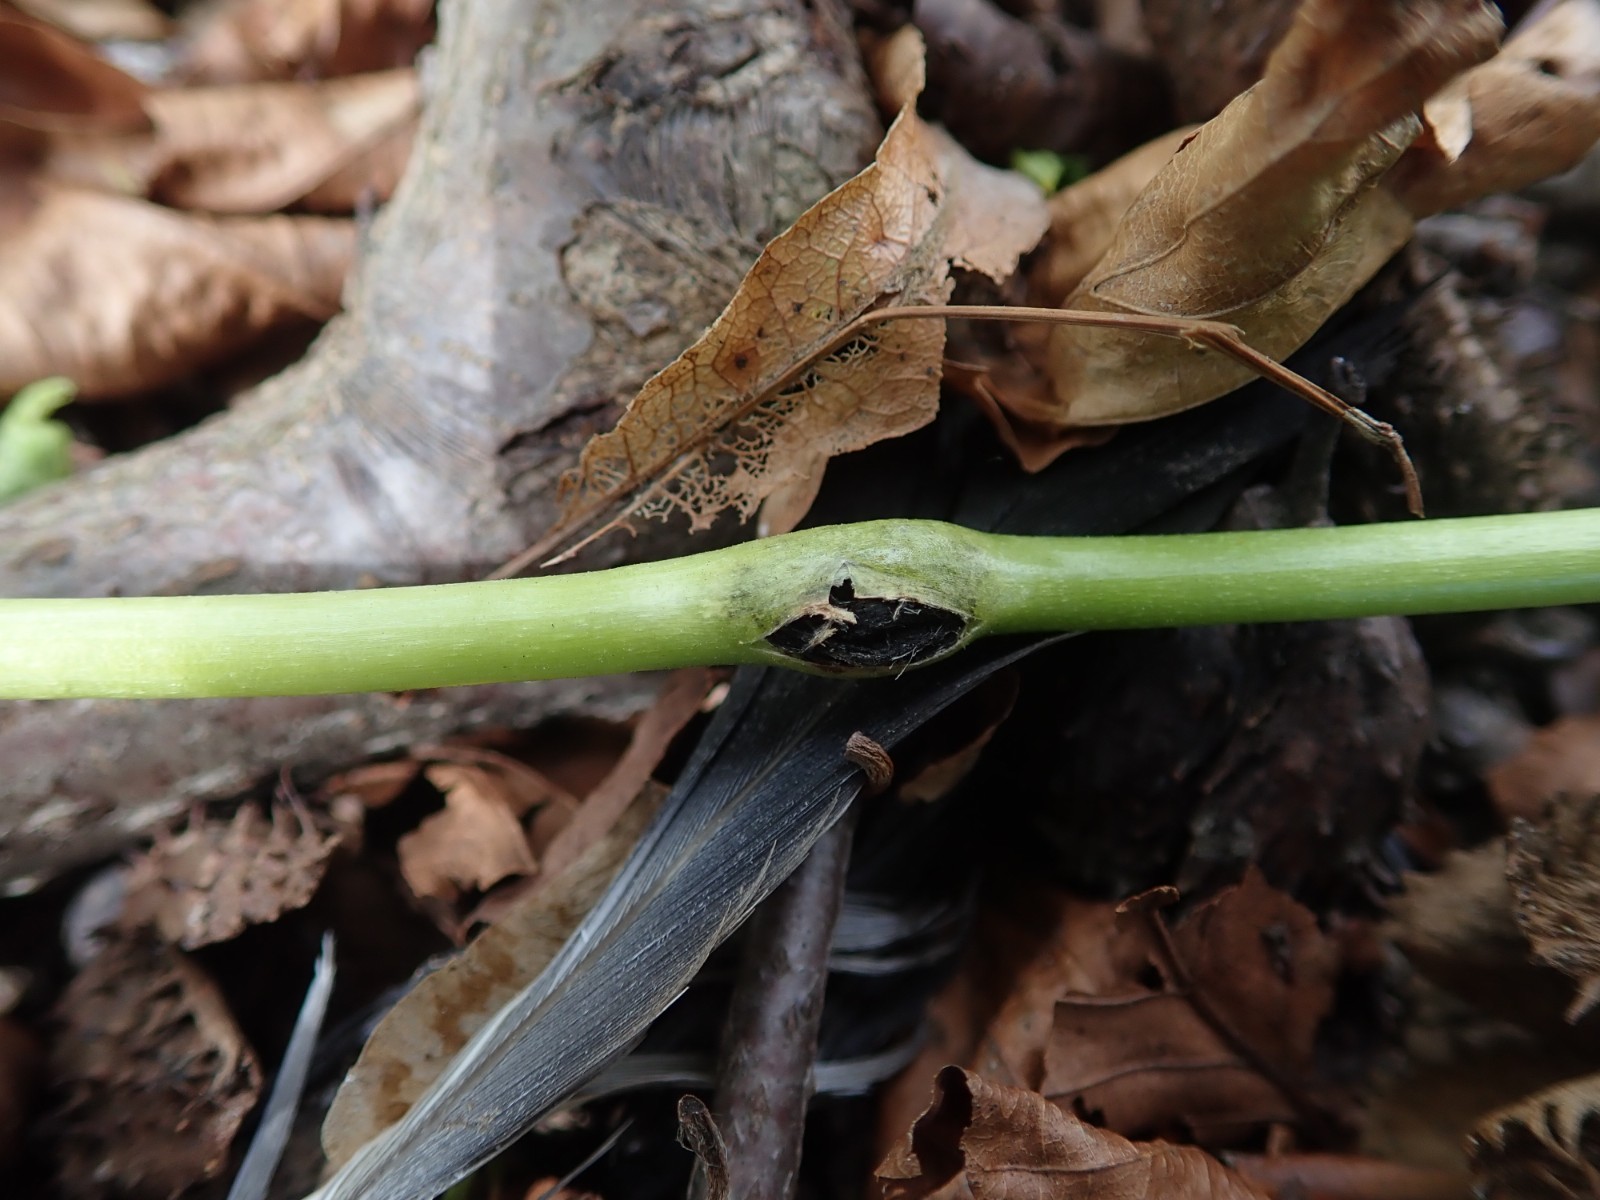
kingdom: Fungi
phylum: Basidiomycota
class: Ustilaginomycetes
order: Urocystidales
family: Urocystidaceae
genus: Urocystis
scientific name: Urocystis eranthidis
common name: erantis-brand
